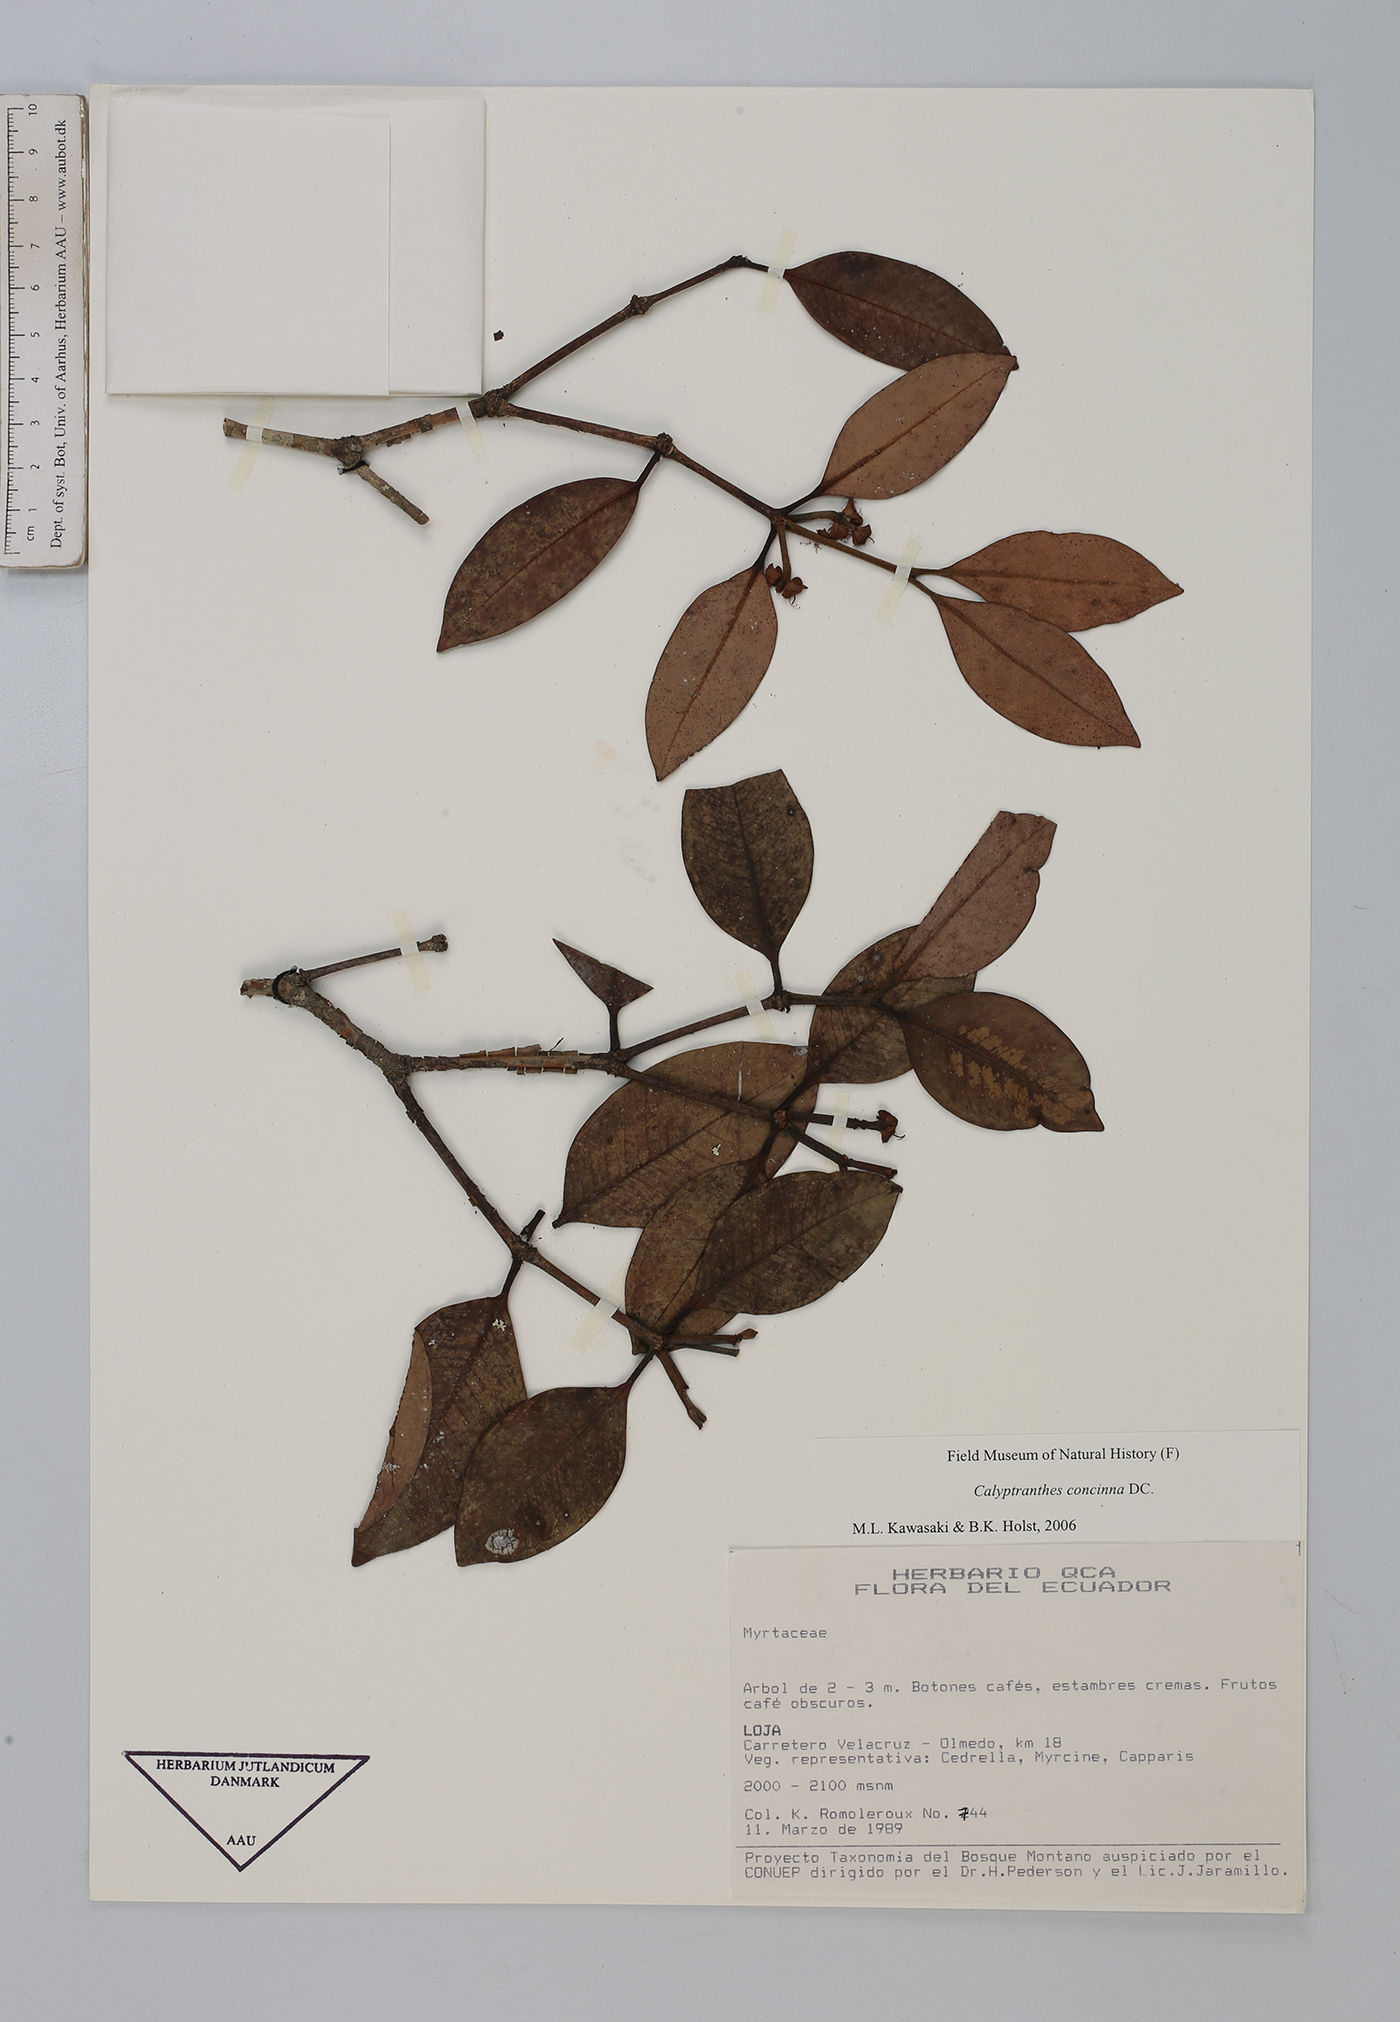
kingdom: Plantae
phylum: Tracheophyta
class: Magnoliopsida
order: Myrtales
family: Myrtaceae
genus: Myrcia
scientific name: Myrcia cruciflora
